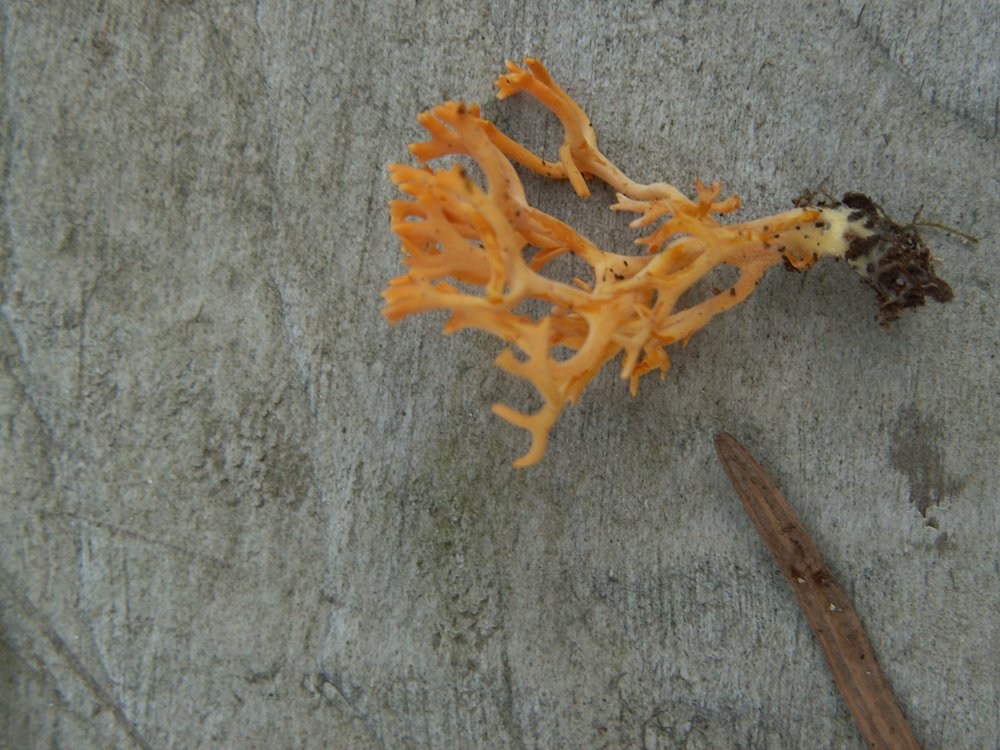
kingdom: Fungi
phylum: Basidiomycota
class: Agaricomycetes
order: Agaricales
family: Clavariaceae
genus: Ramariopsis
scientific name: Ramariopsis crocea
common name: gylden køllesvamp
